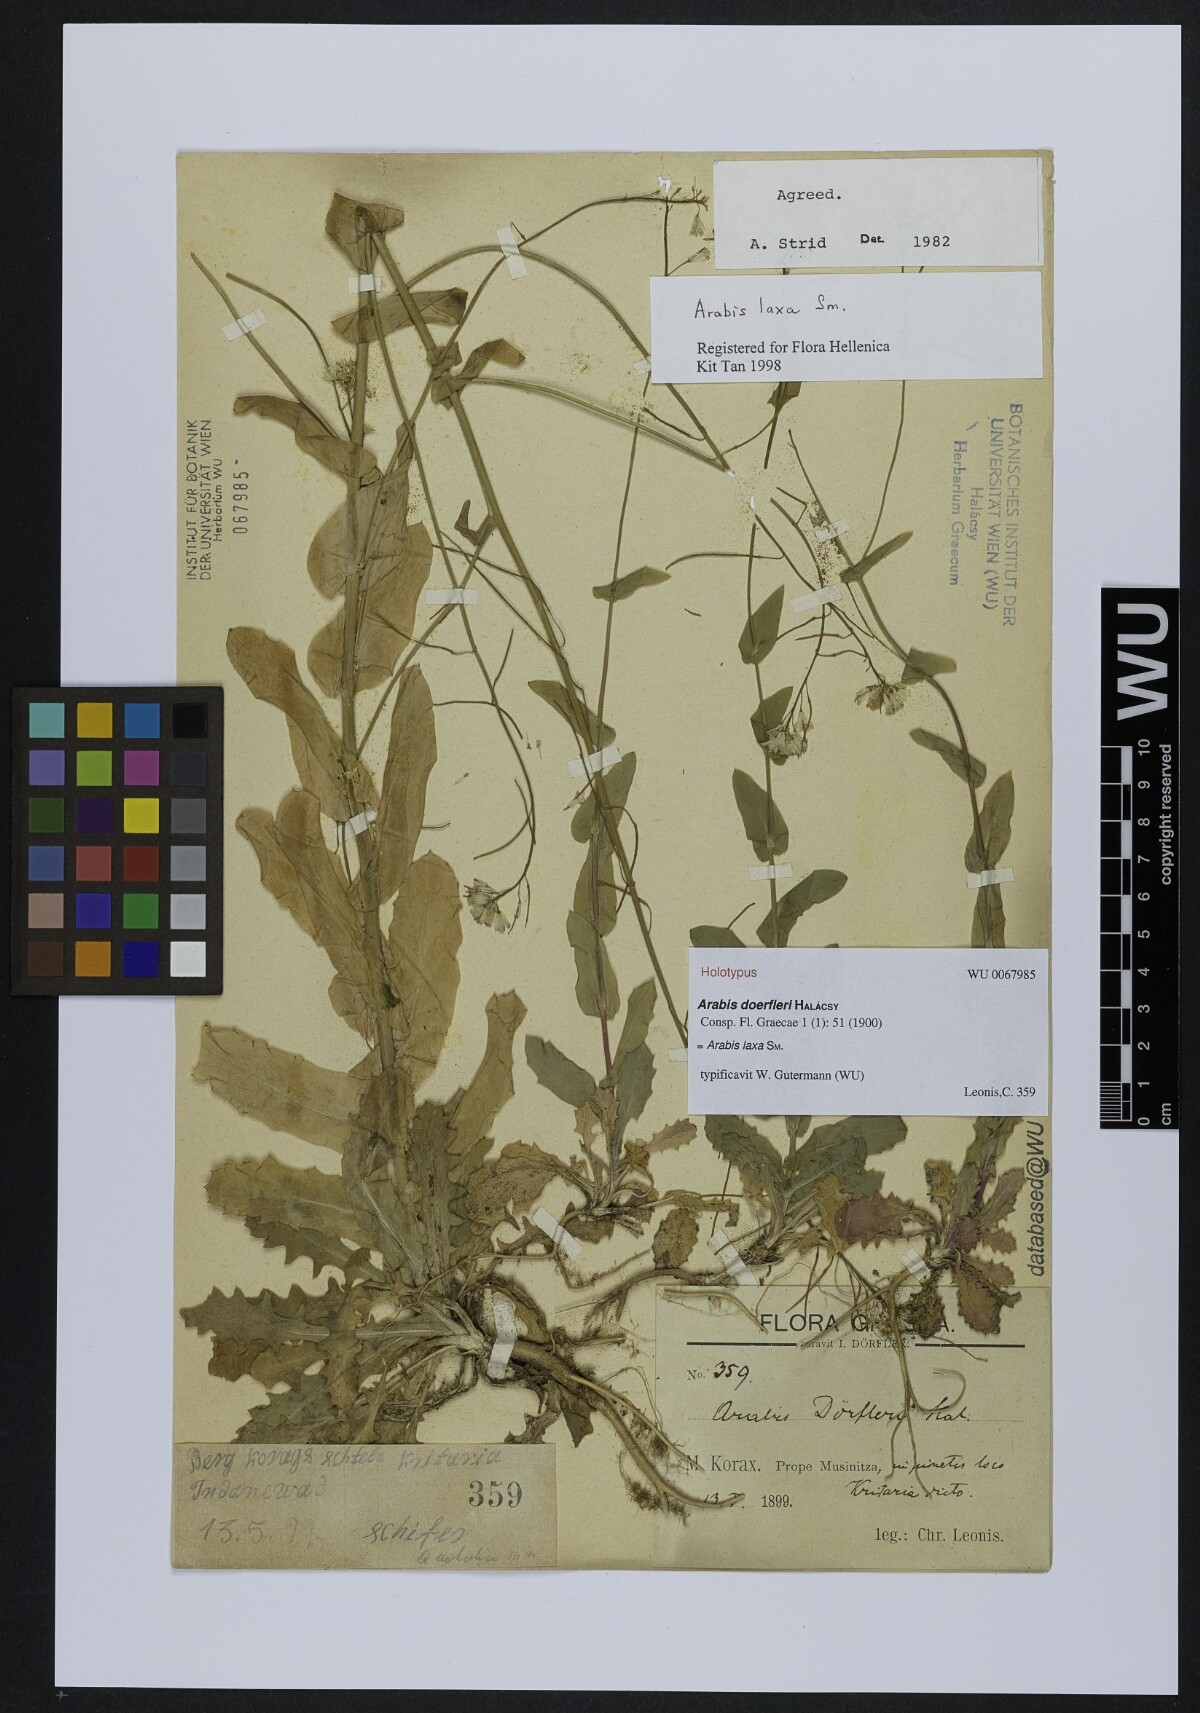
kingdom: Plantae
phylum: Tracheophyta
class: Magnoliopsida
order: Brassicales
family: Brassicaceae
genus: Turritis
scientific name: Turritis laxa
